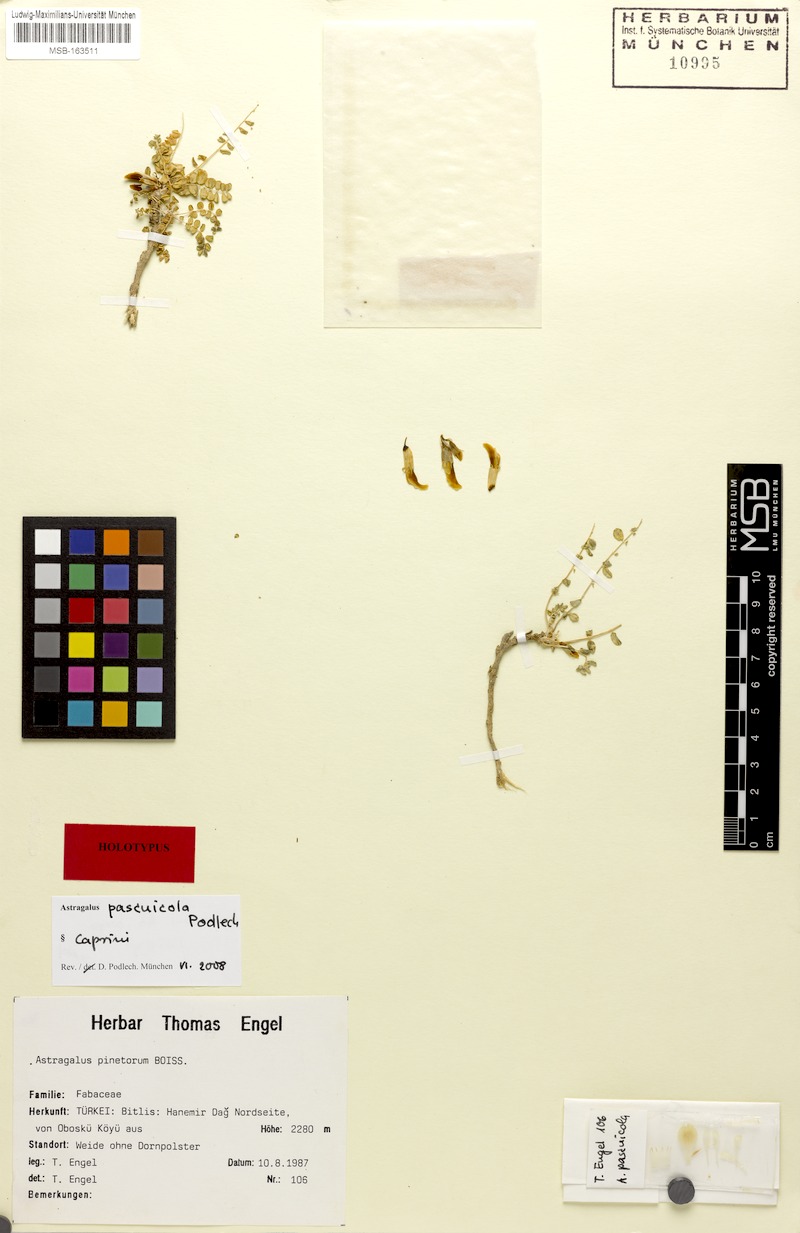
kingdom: Plantae
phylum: Tracheophyta
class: Magnoliopsida
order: Fabales
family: Fabaceae
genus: Astragalus
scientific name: Astragalus pascuicola
